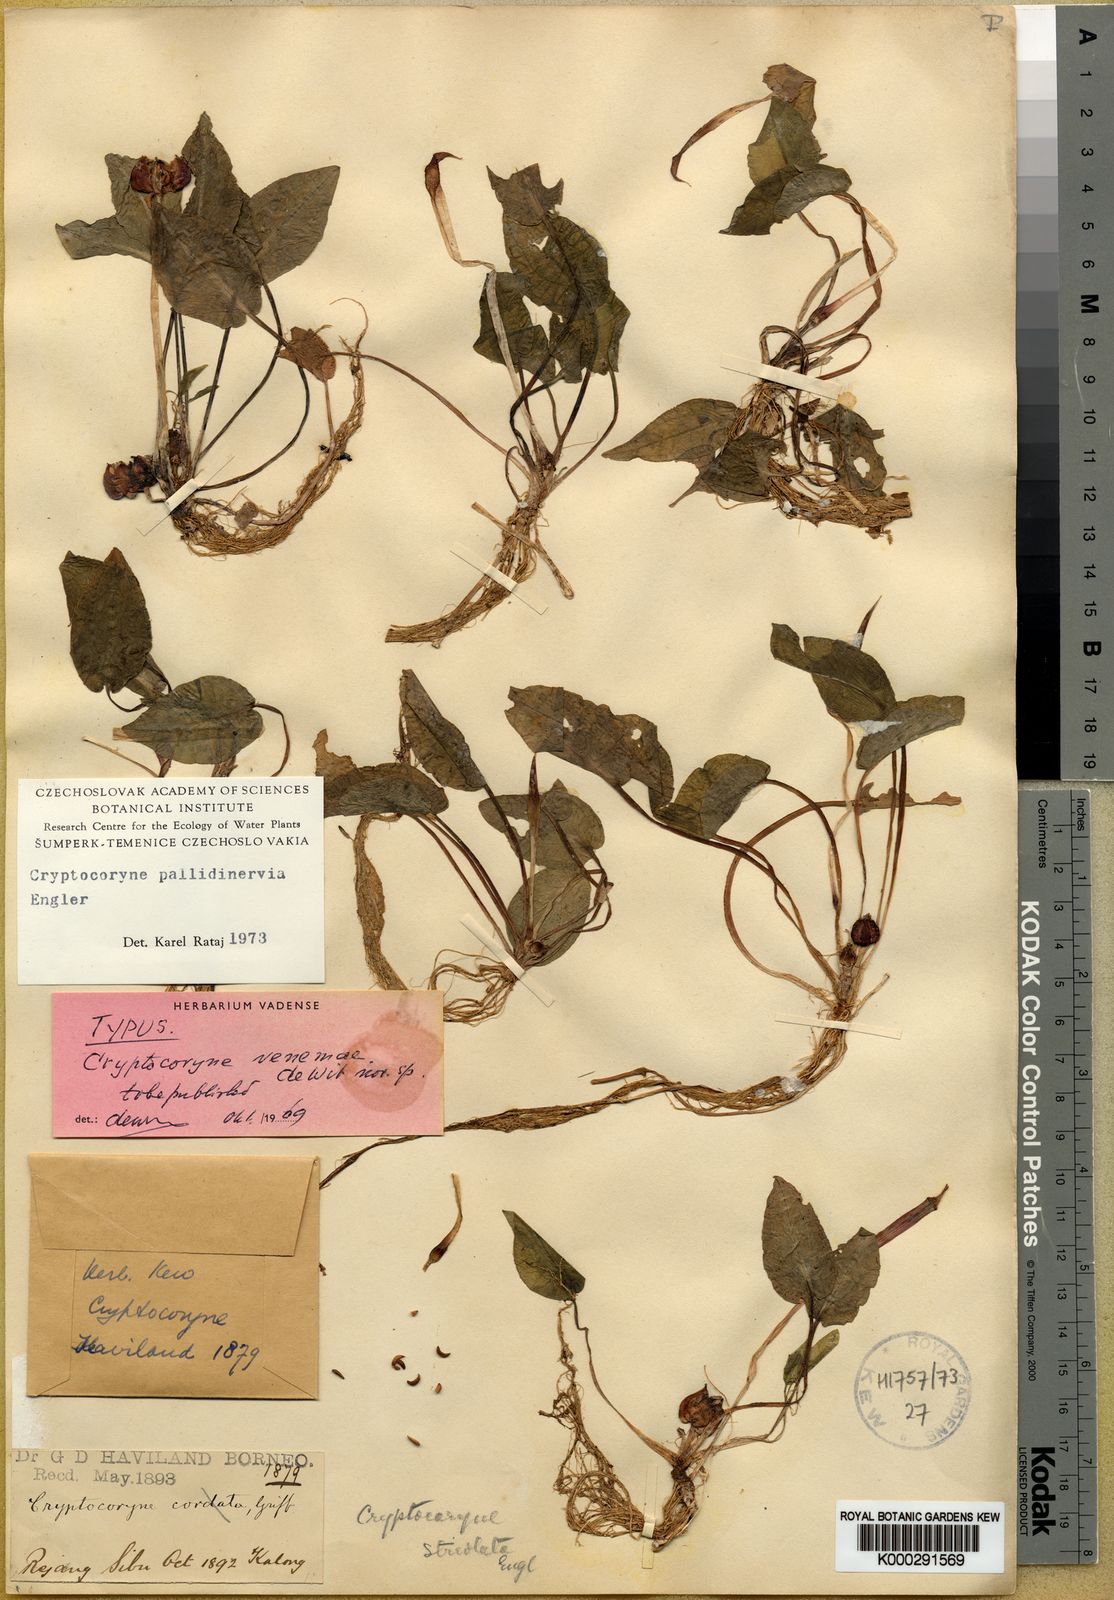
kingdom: Plantae
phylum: Tracheophyta
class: Liliopsida
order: Alismatales
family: Araceae
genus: Cryptocoryne
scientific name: Cryptocoryne pallidinervia
